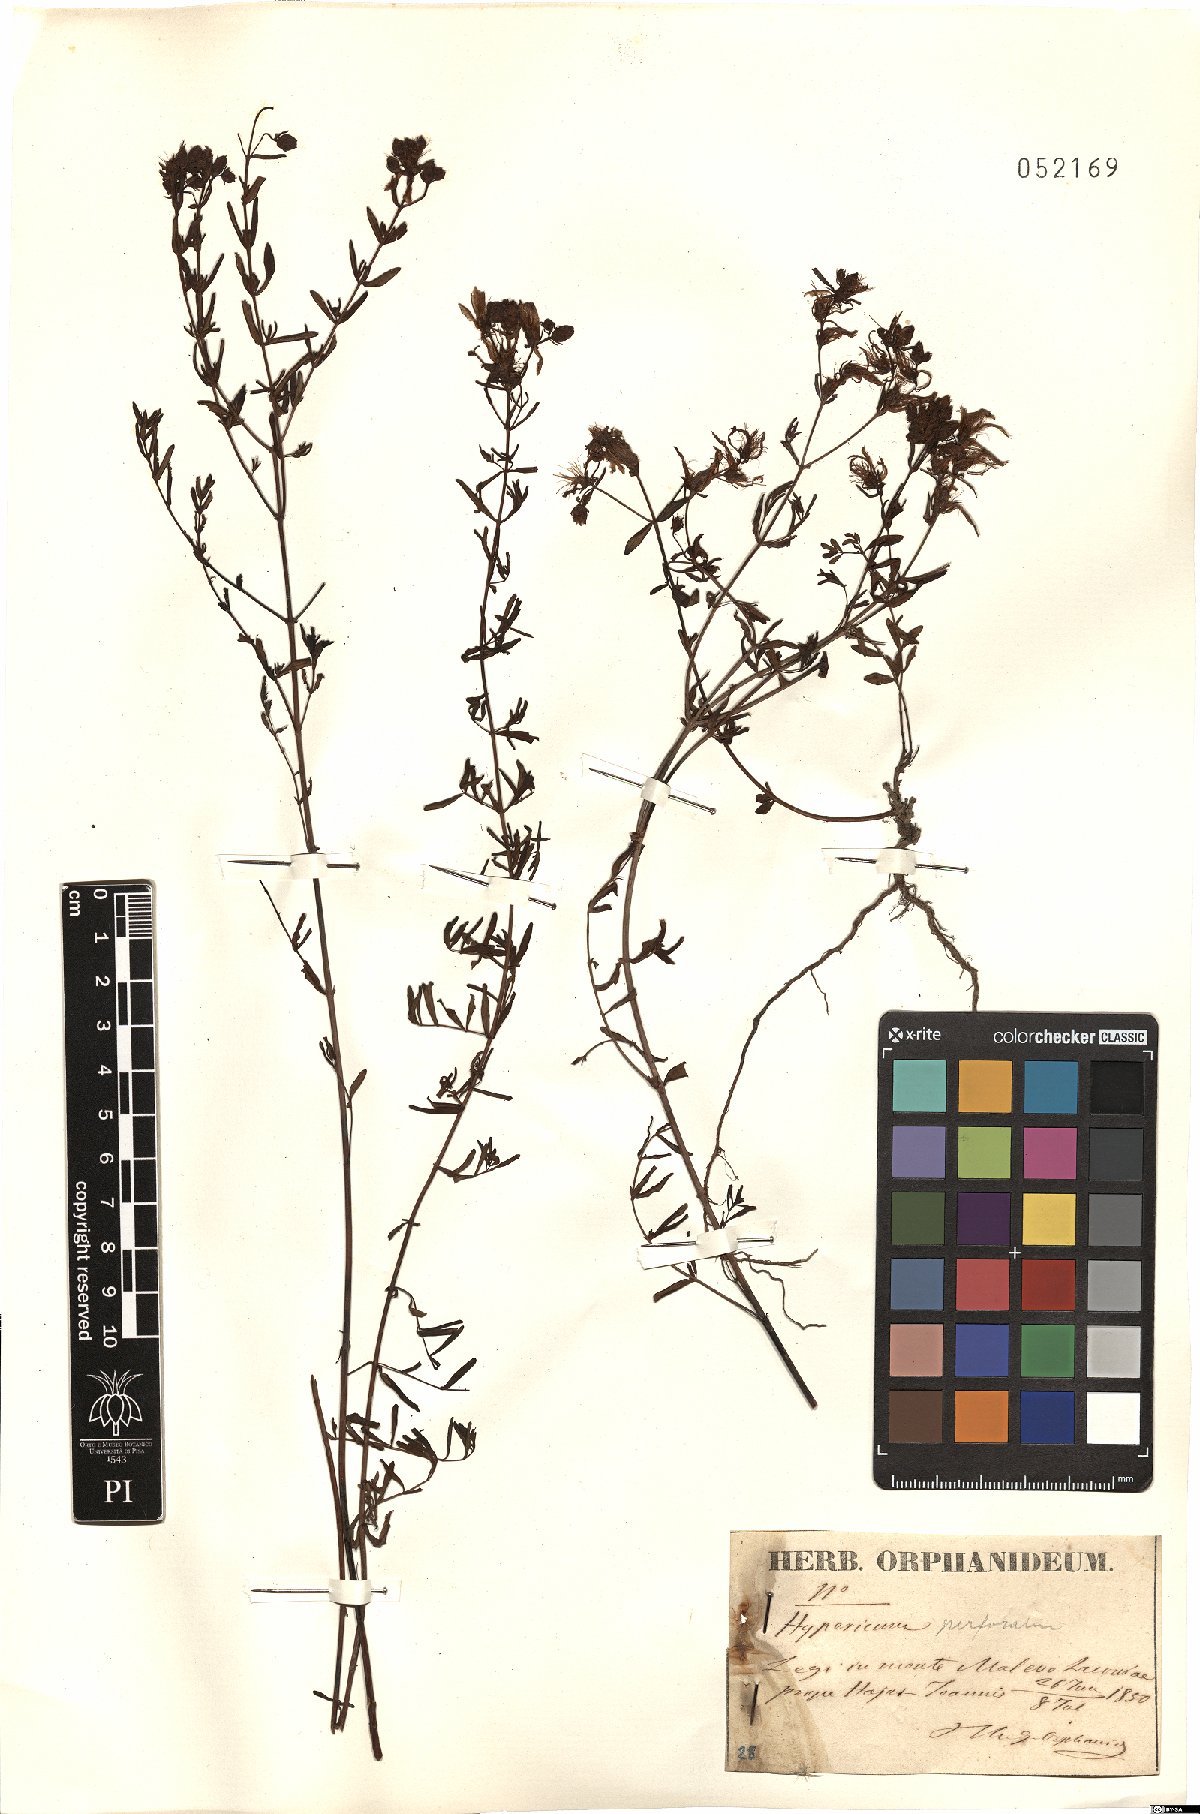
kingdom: Plantae
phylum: Tracheophyta
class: Magnoliopsida
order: Malpighiales
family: Hypericaceae
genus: Hypericum
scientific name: Hypericum perforatum
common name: Common st. johnswort
